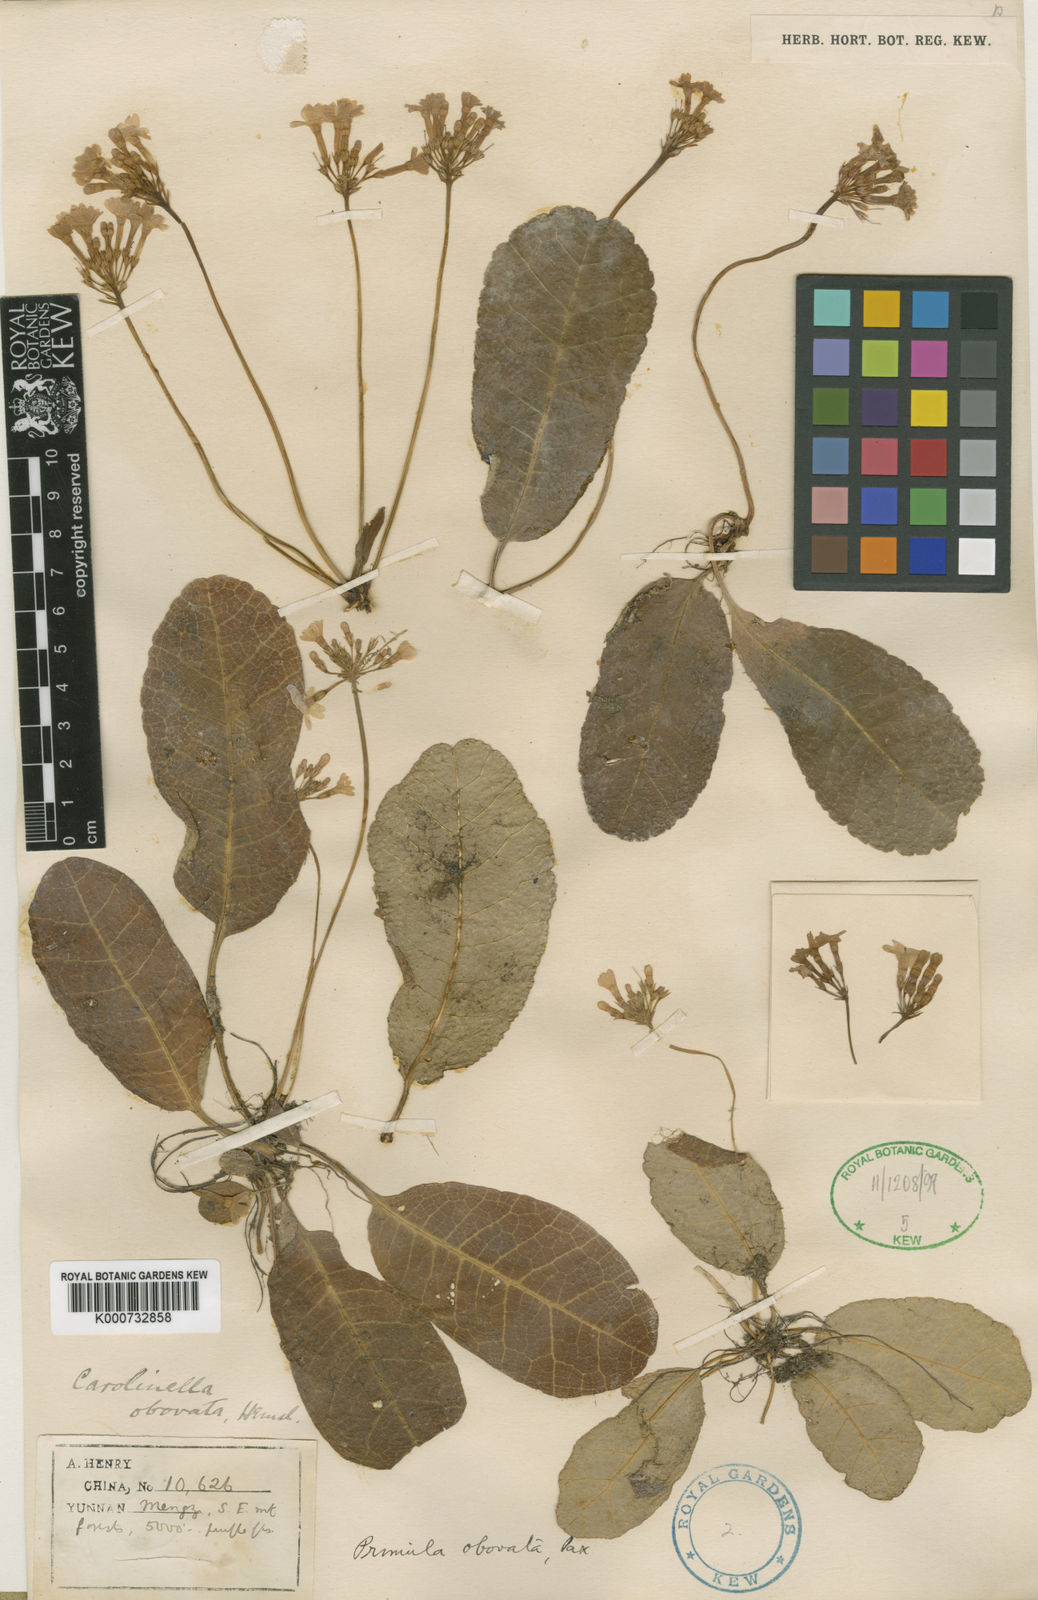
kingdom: Plantae
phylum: Tracheophyta
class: Magnoliopsida
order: Ericales
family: Primulaceae
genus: Primula
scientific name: Primula
